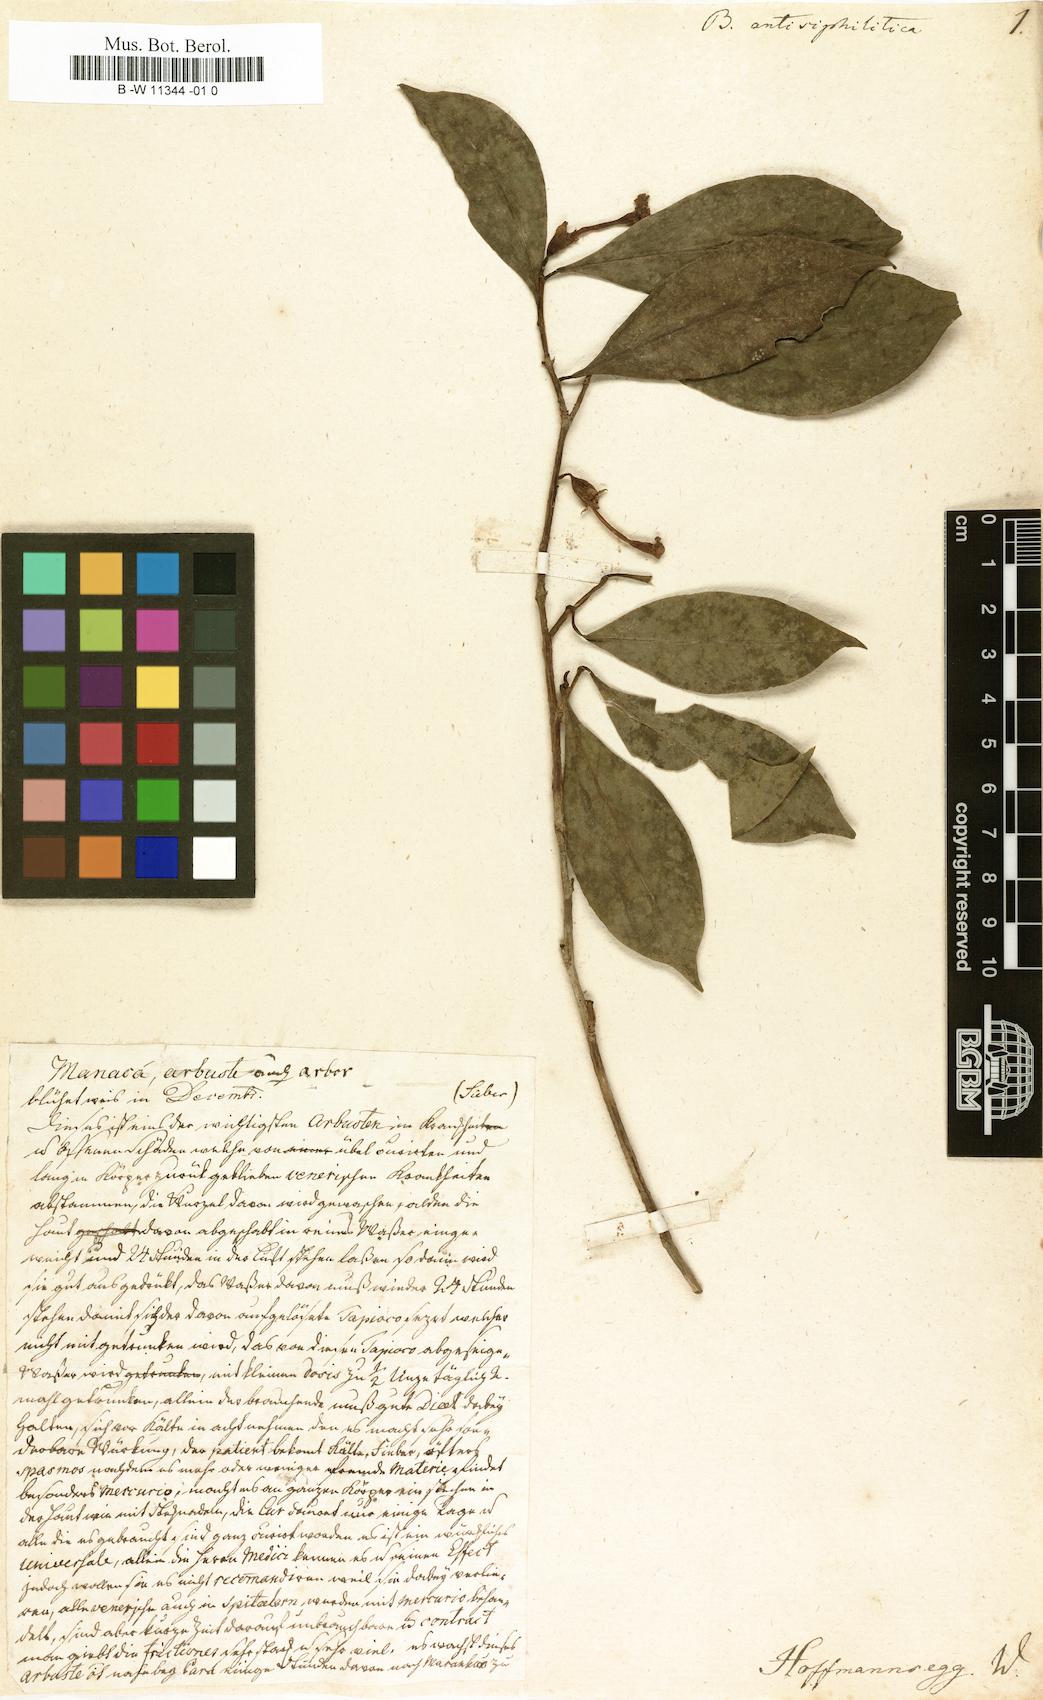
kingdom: Plantae
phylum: Tracheophyta
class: Magnoliopsida
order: Lamiales
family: Gesneriaceae
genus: Besleria
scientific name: Besleria
